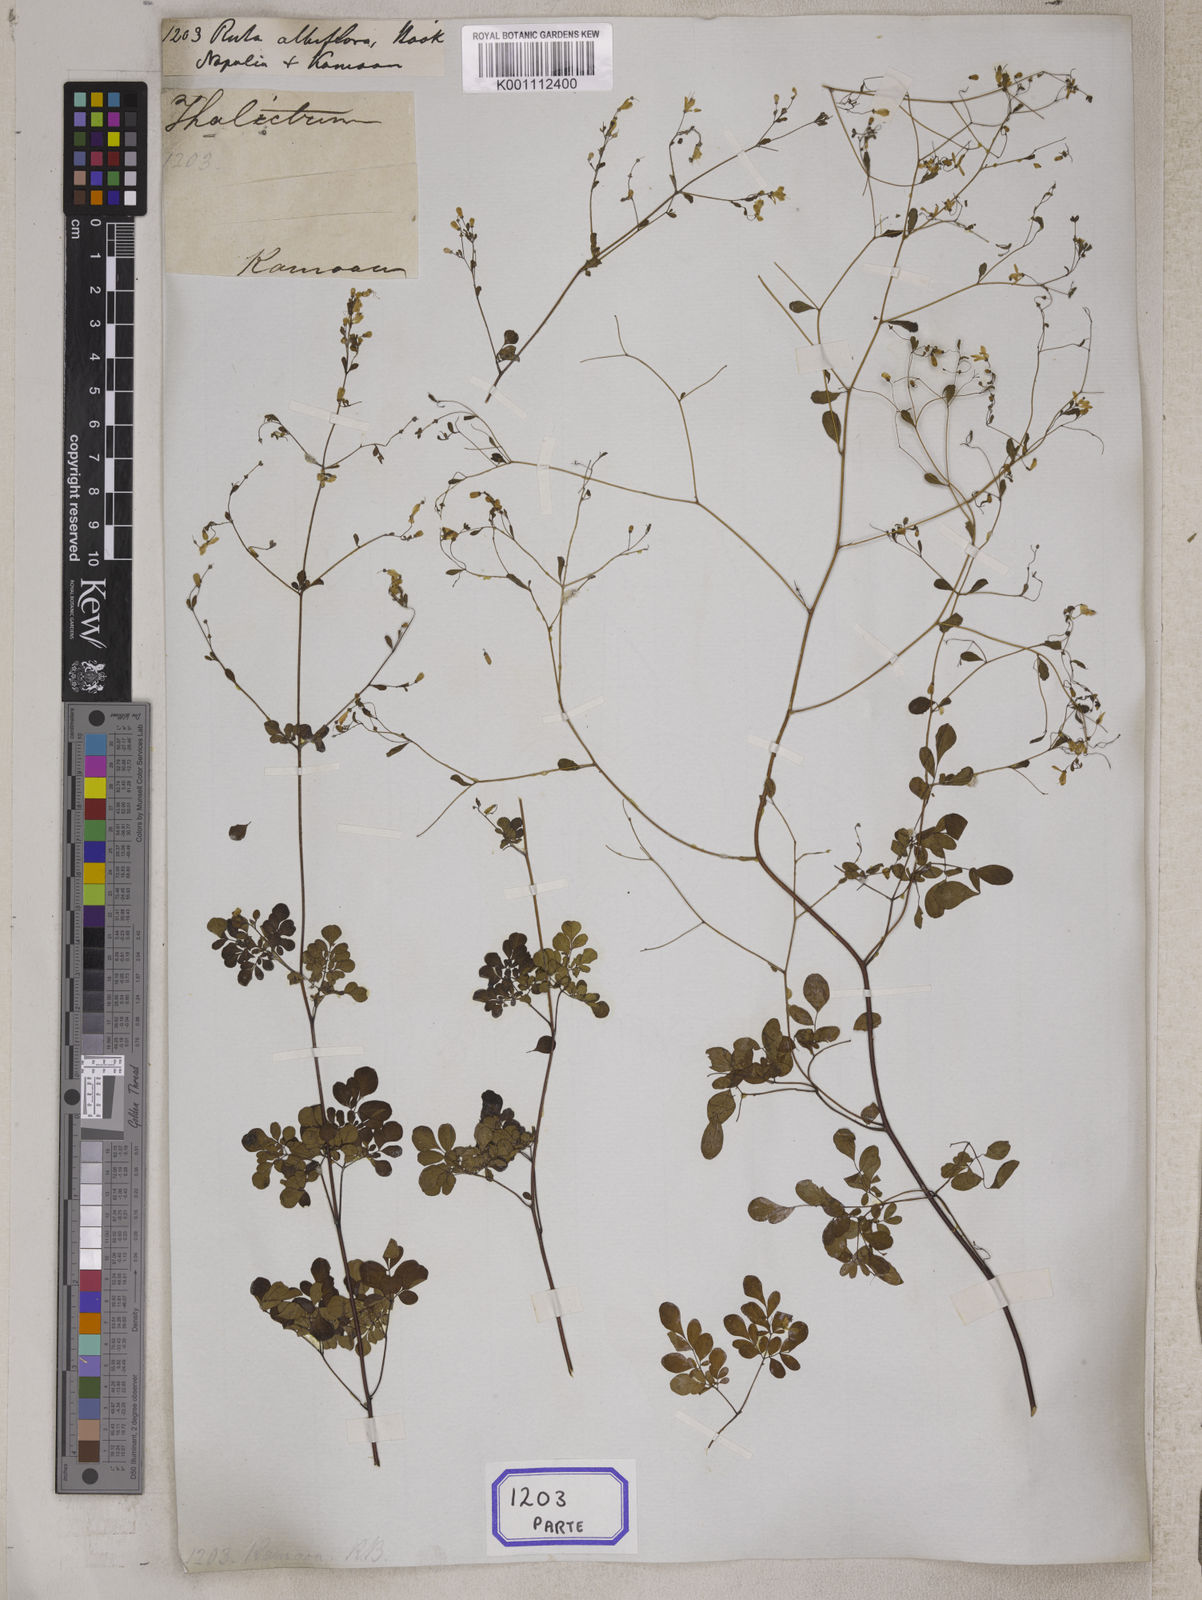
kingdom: Plantae
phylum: Tracheophyta
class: Magnoliopsida
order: Sapindales
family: Rutaceae
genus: Boenninghausenia
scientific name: Boenninghausenia albiflora
